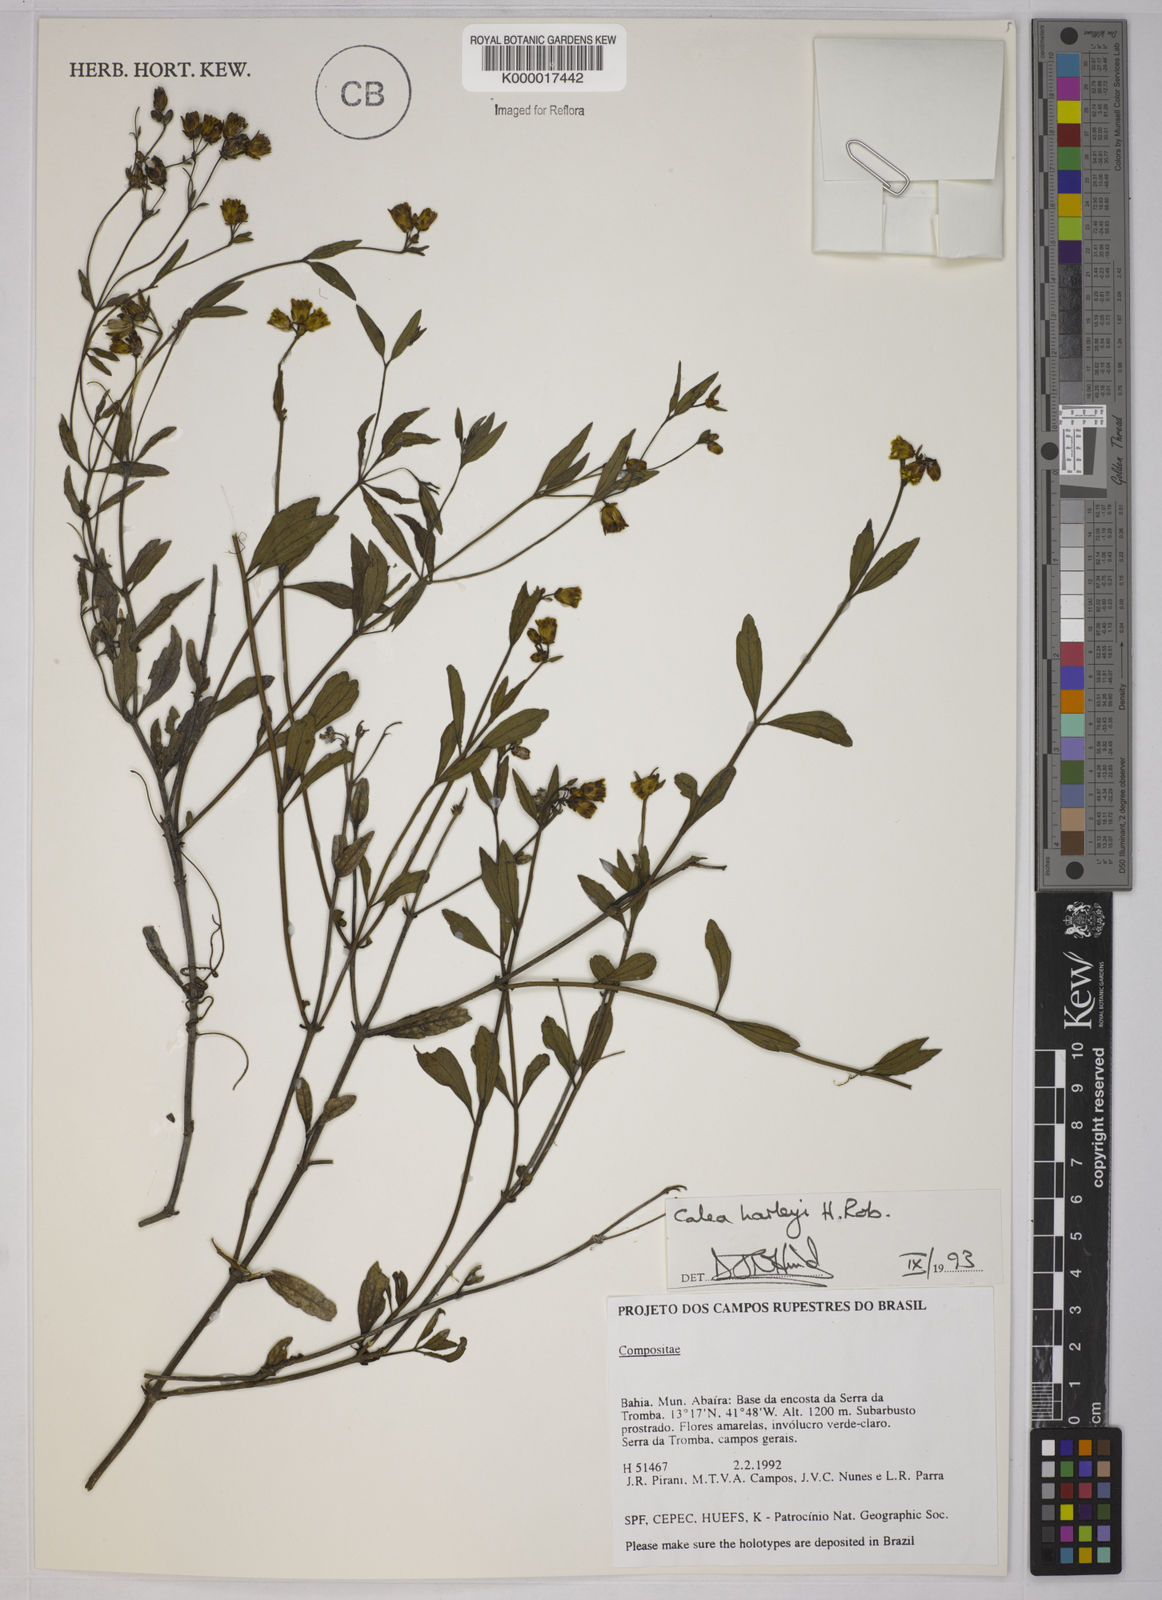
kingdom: Plantae
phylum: Tracheophyta
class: Magnoliopsida
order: Asterales
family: Asteraceae
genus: Calea
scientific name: Calea harleyi
